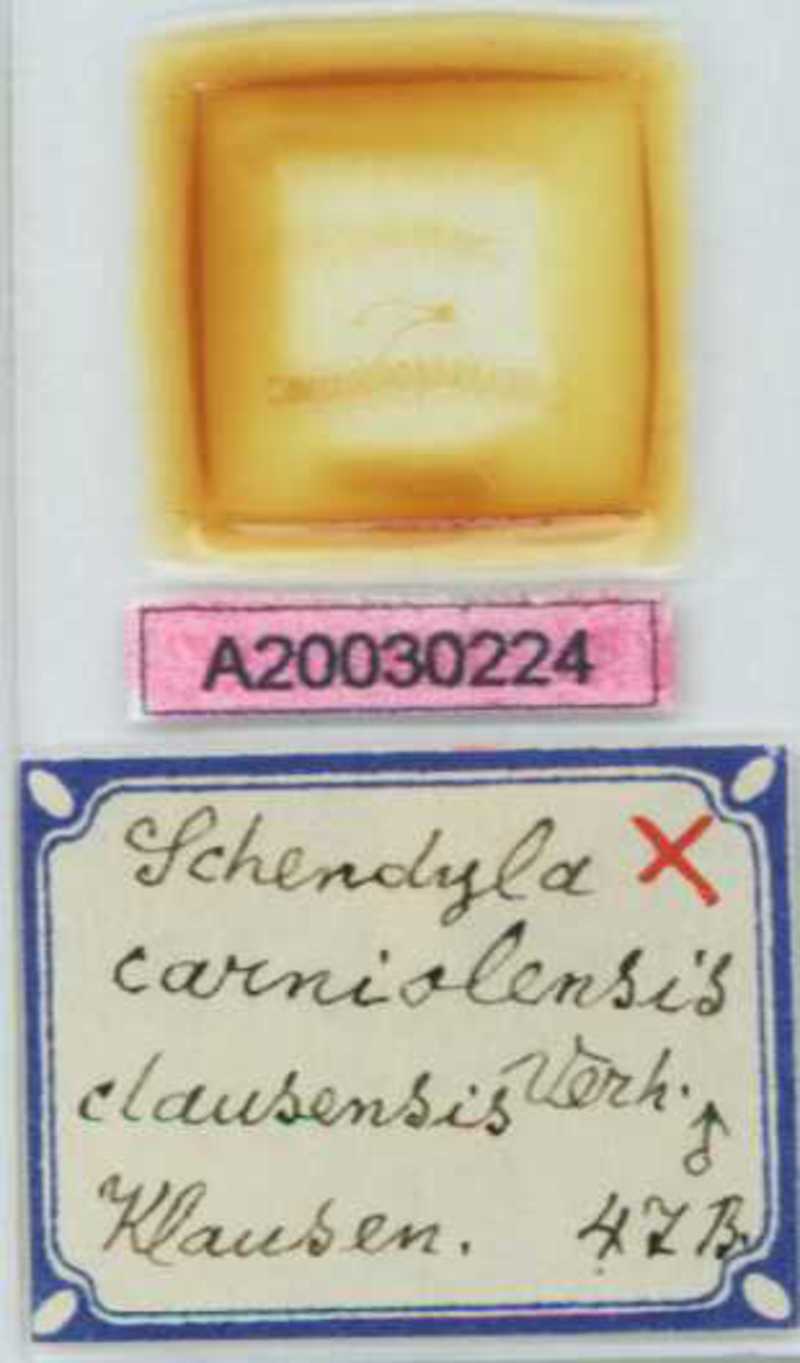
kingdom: Animalia
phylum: Arthropoda
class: Chilopoda
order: Geophilomorpha
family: Schendylidae
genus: Schendyla
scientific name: Schendyla carniolensis
